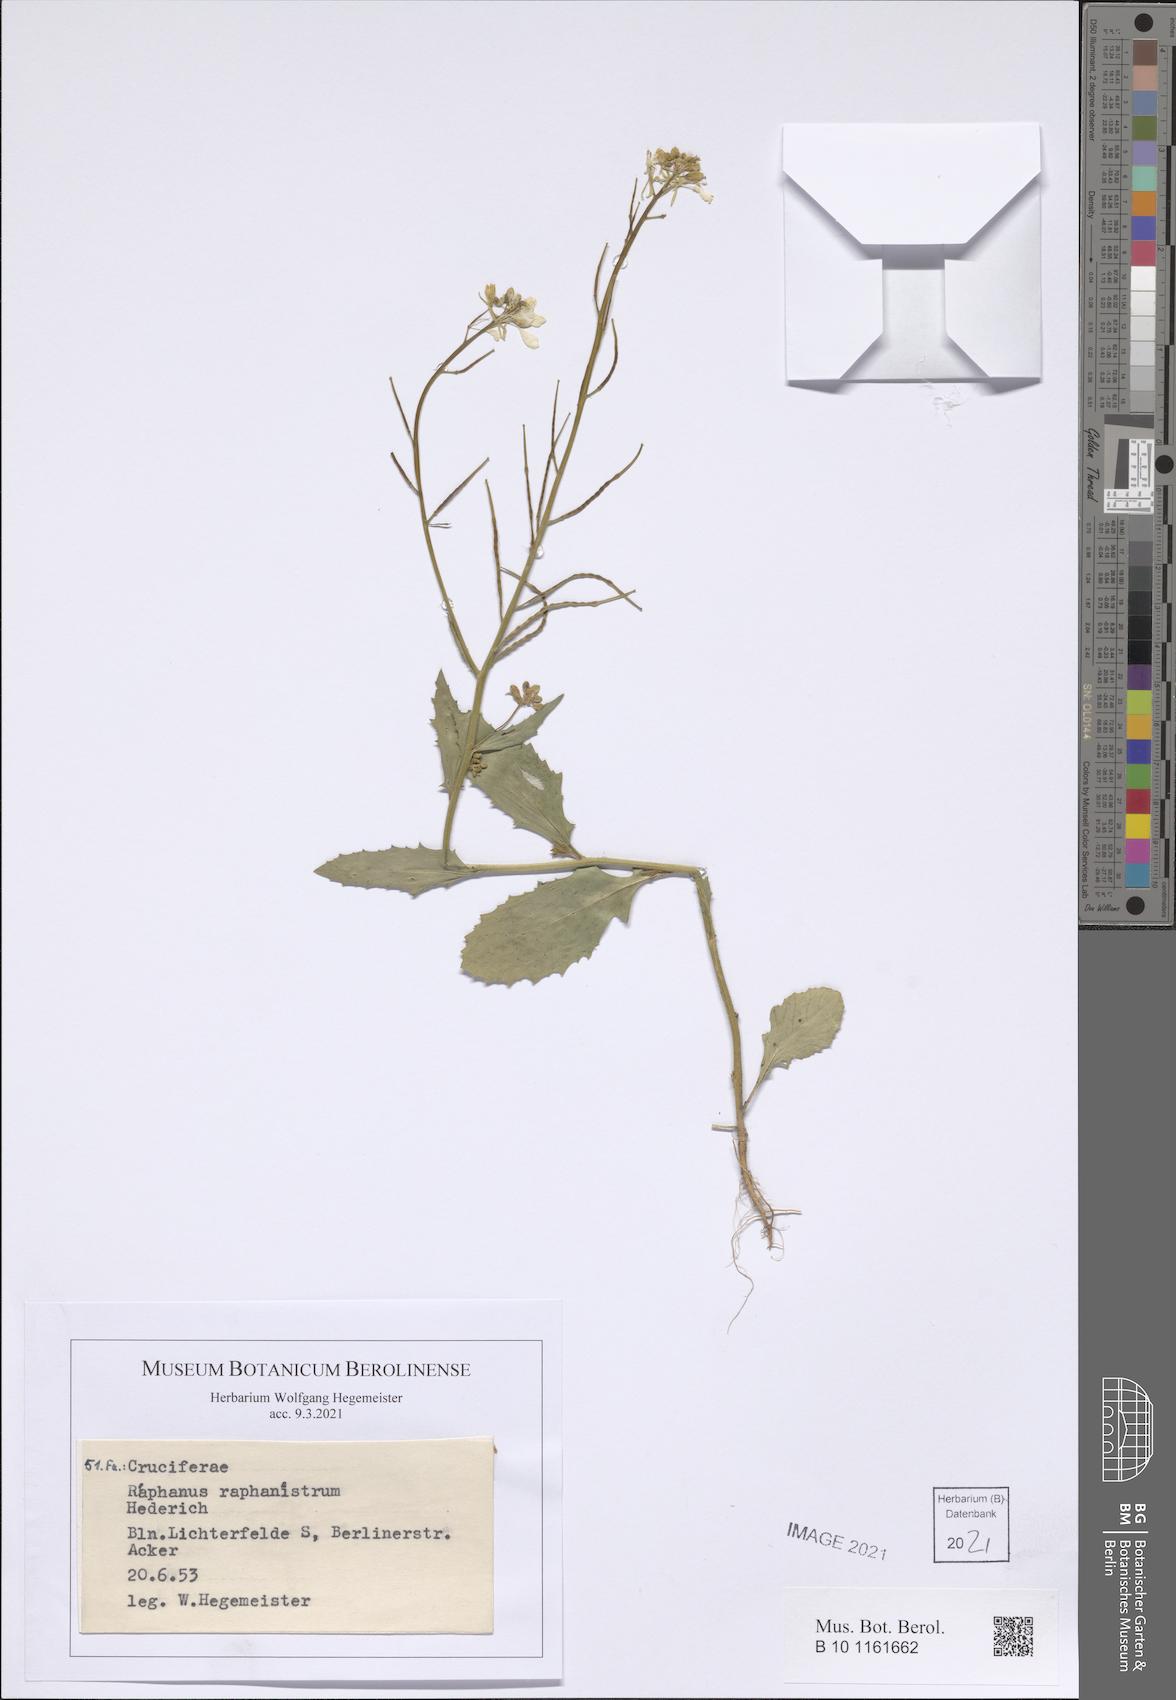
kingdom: Plantae
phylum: Tracheophyta
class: Magnoliopsida
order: Brassicales
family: Brassicaceae
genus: Raphanus
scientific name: Raphanus raphanistrum
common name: Wild radish
